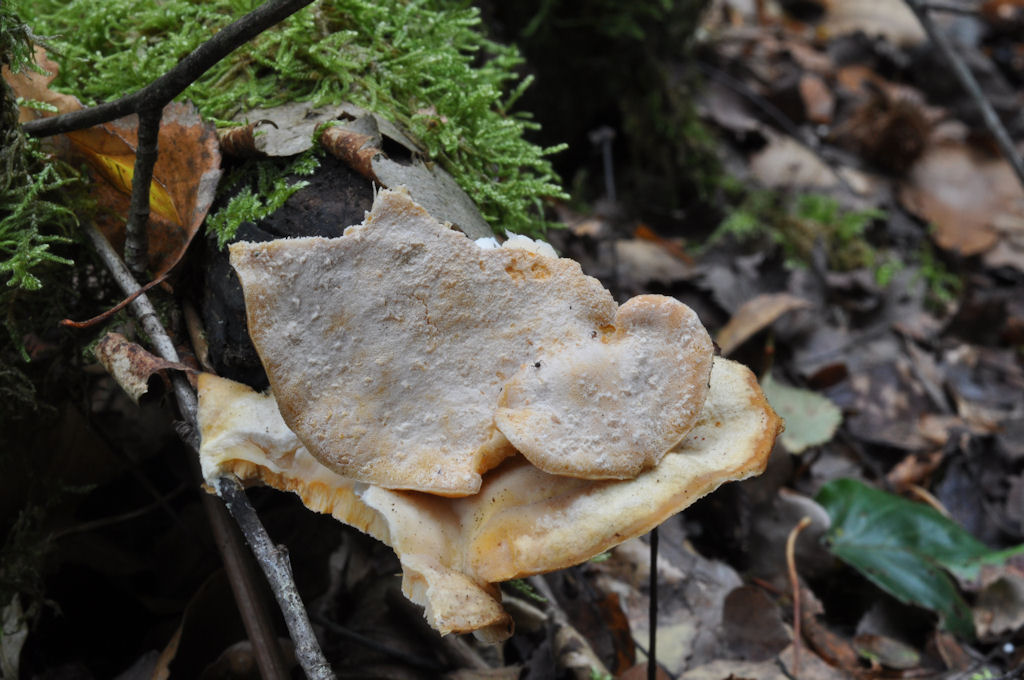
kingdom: Fungi
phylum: Ascomycota
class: Sordariomycetes
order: Hypocreales
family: Hypocreaceae
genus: Protocrea
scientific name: Protocrea pallida
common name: bleg kødkerne
